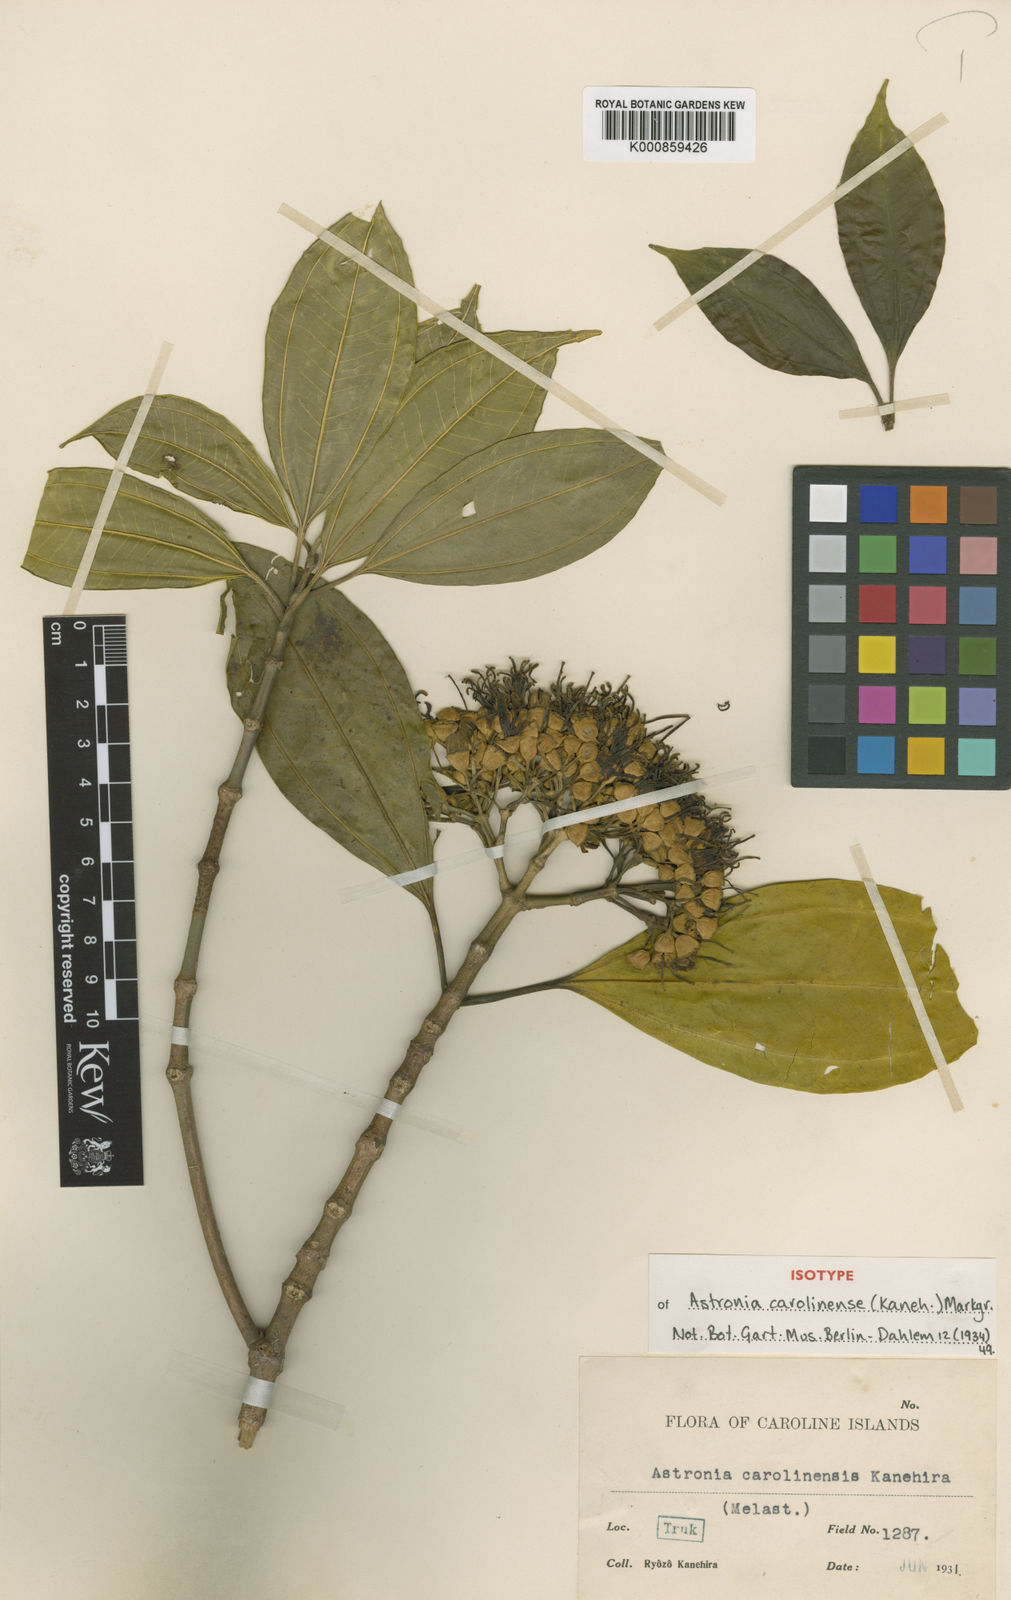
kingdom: Plantae
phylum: Tracheophyta
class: Magnoliopsida
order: Myrtales
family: Melastomataceae
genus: Astronidium
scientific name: Astronidium carolinense
